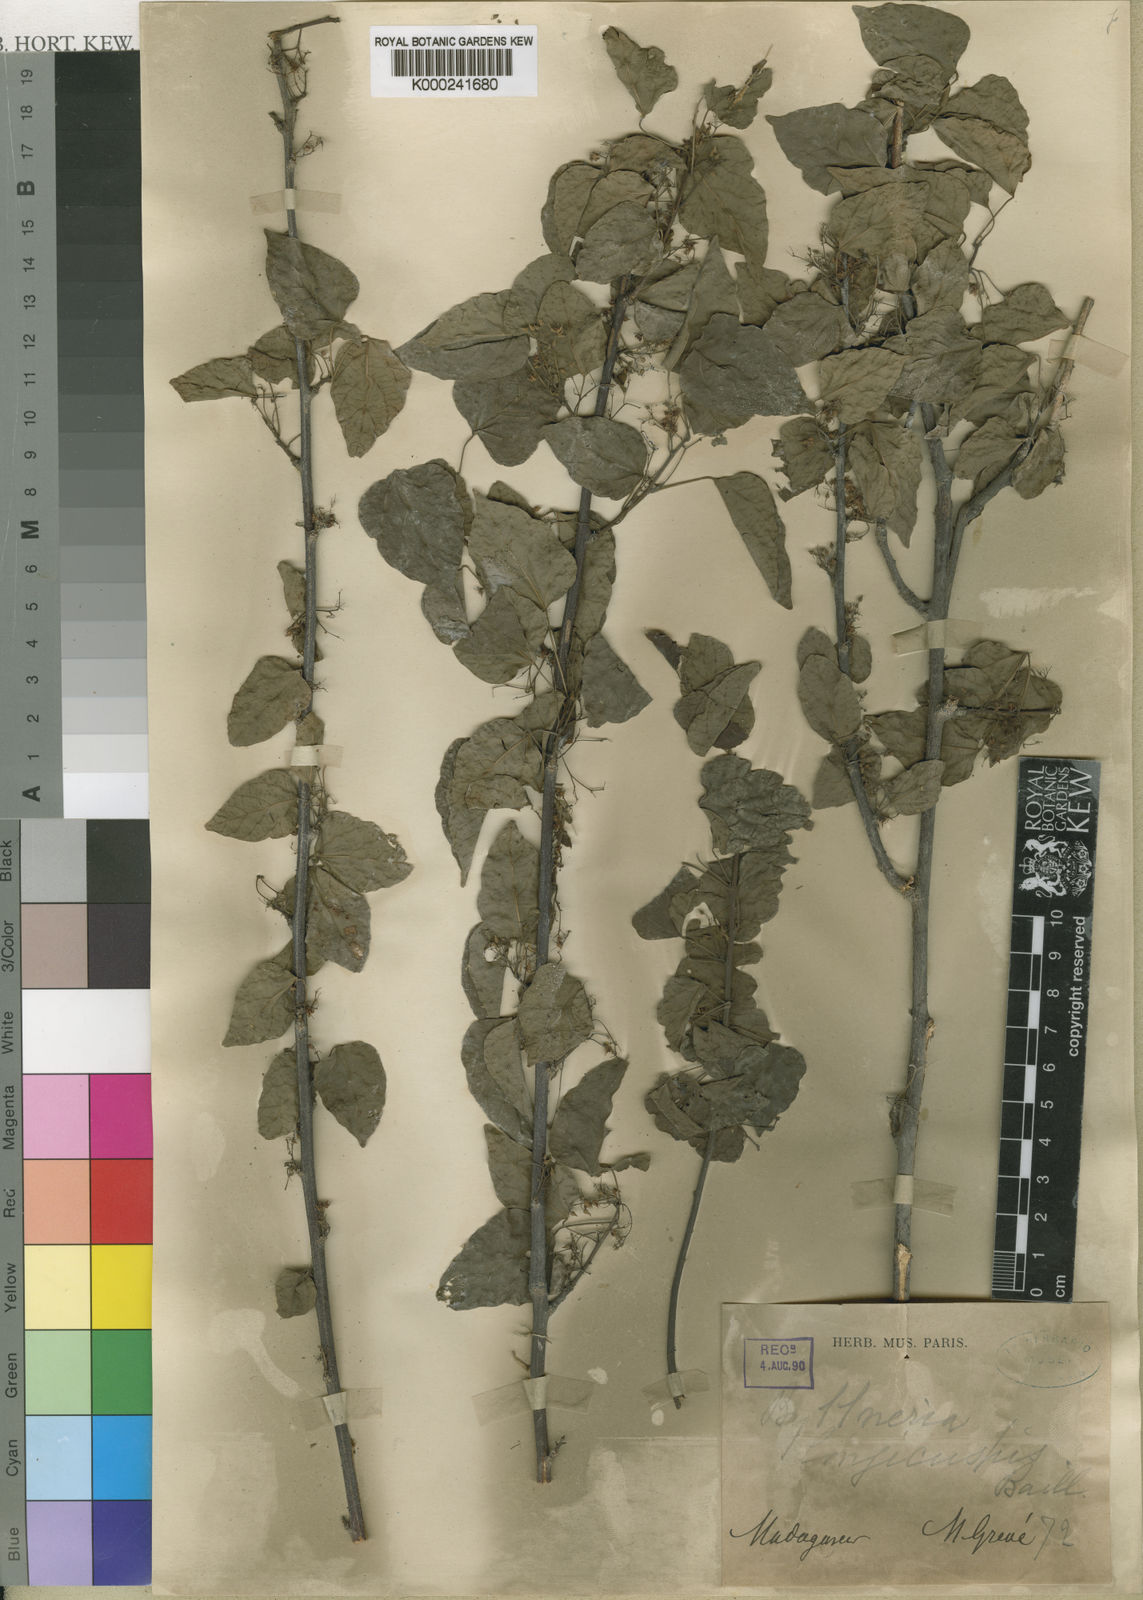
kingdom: Plantae
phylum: Tracheophyta
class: Magnoliopsida
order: Malvales
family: Malvaceae
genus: Byttneria
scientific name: Byttneria
